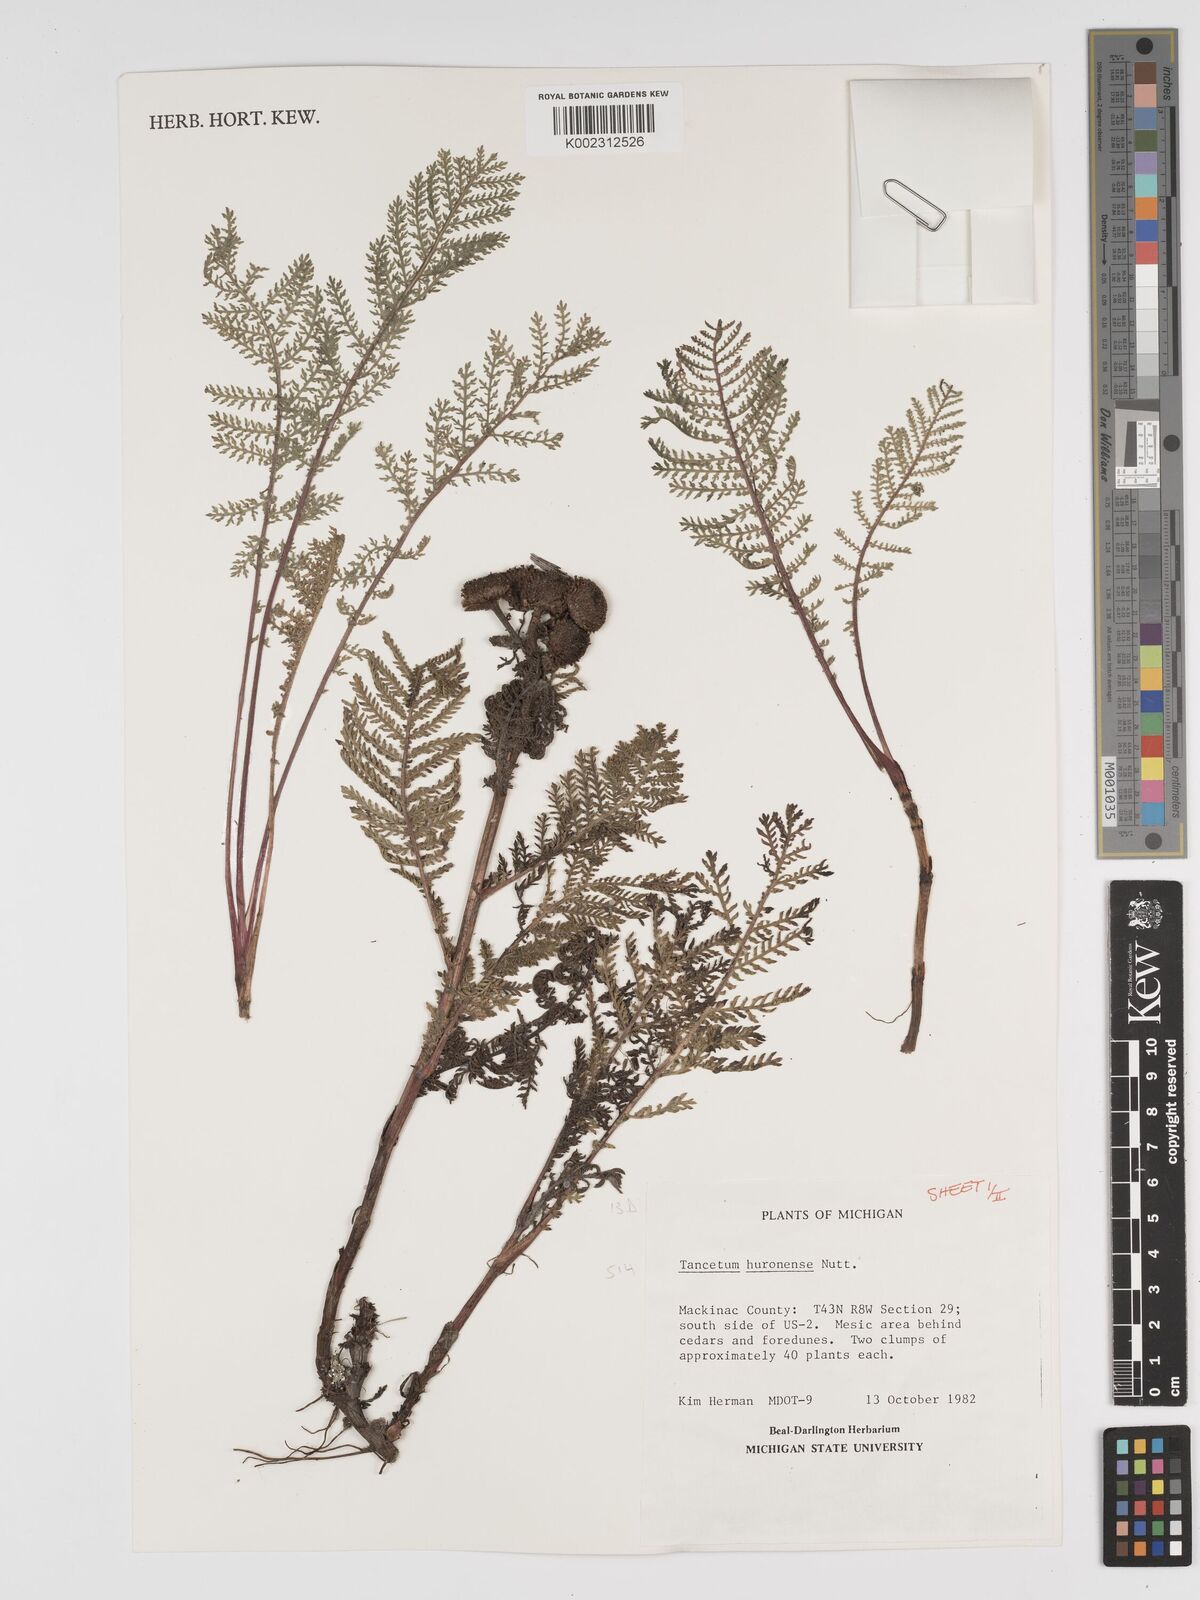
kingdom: Plantae
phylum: Tracheophyta
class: Magnoliopsida
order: Asterales
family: Asteraceae
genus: Tanacetum
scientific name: Tanacetum bipinnatum
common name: Dwarf tansy
